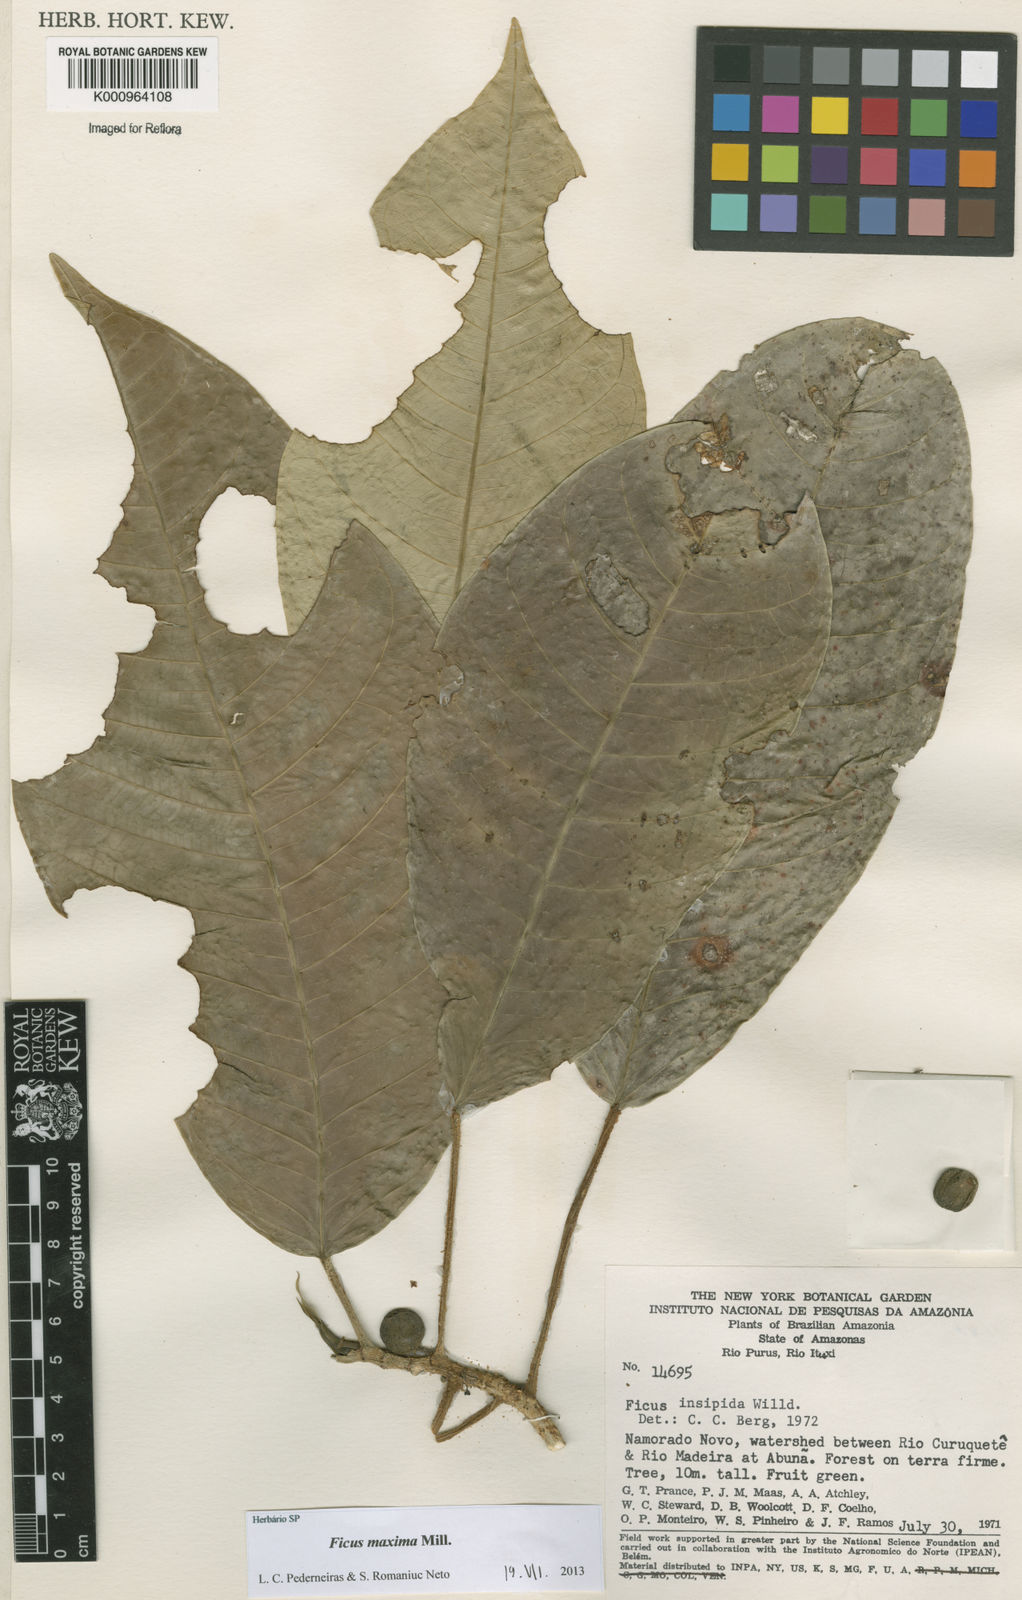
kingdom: Plantae
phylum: Tracheophyta
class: Magnoliopsida
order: Rosales
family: Moraceae
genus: Ficus
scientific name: Ficus maxima
